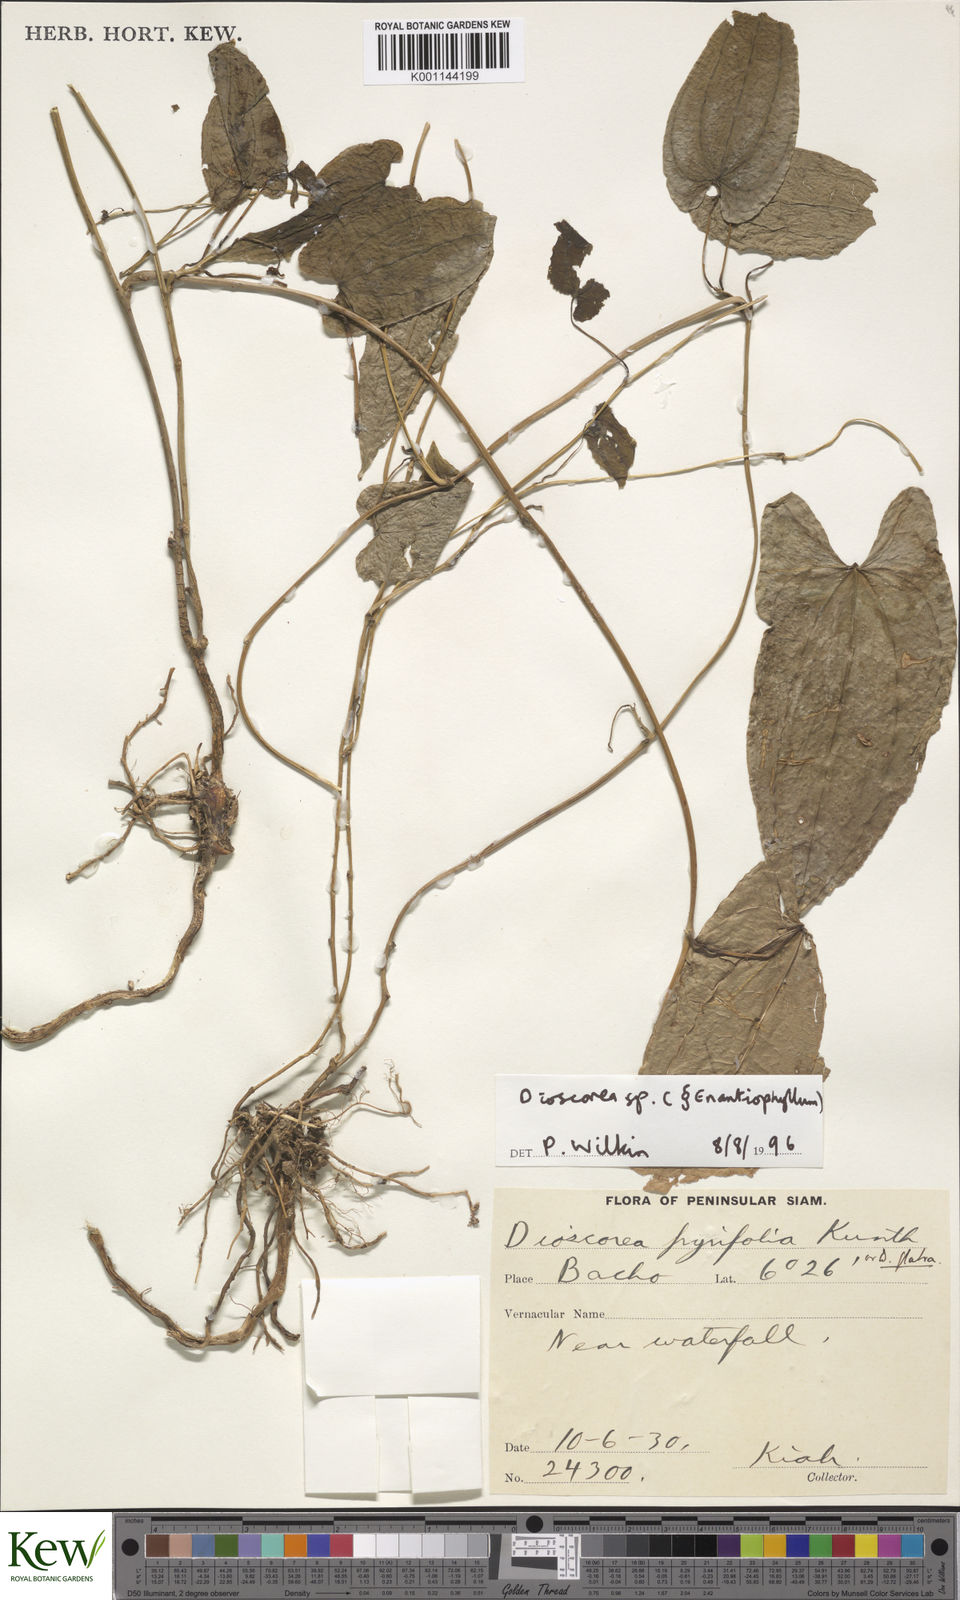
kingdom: Plantae
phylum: Tracheophyta
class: Liliopsida
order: Dioscoreales
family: Dioscoreaceae
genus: Dioscorea
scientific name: Dioscorea
